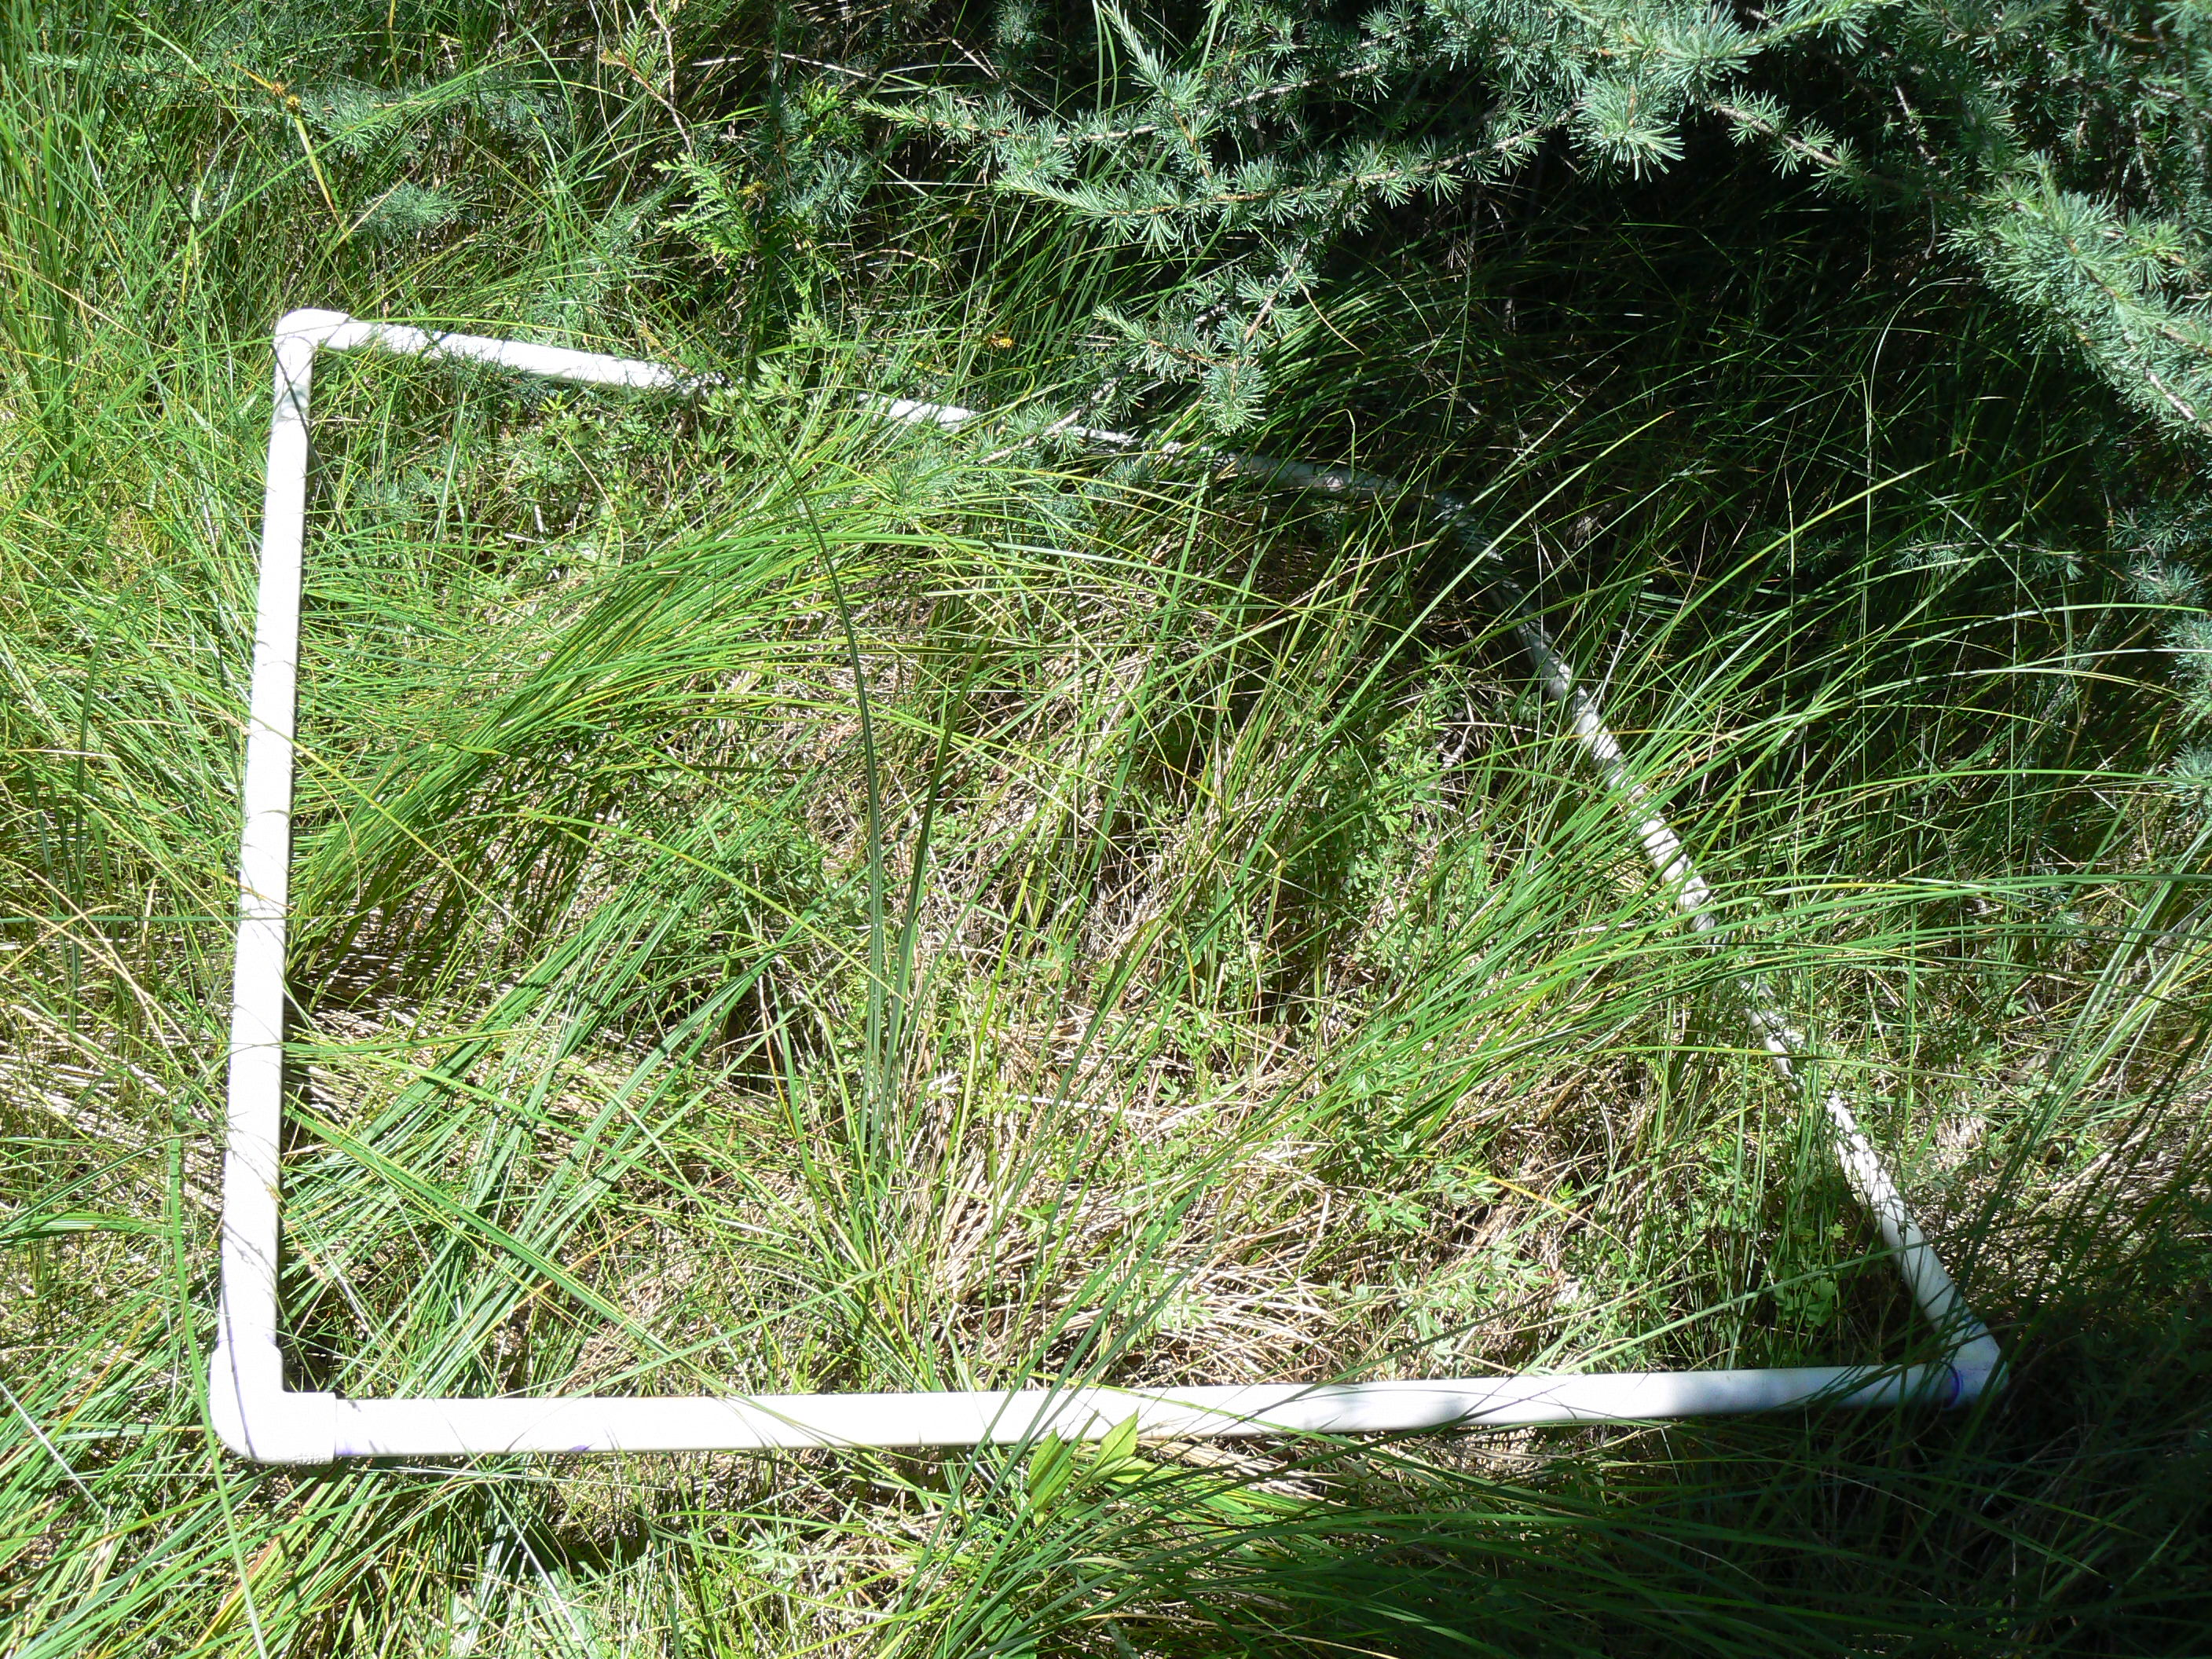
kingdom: Plantae
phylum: Tracheophyta
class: Liliopsida
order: Poales
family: Cyperaceae
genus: Carex
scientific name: Carex sterilis
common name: Dioecious sedge
